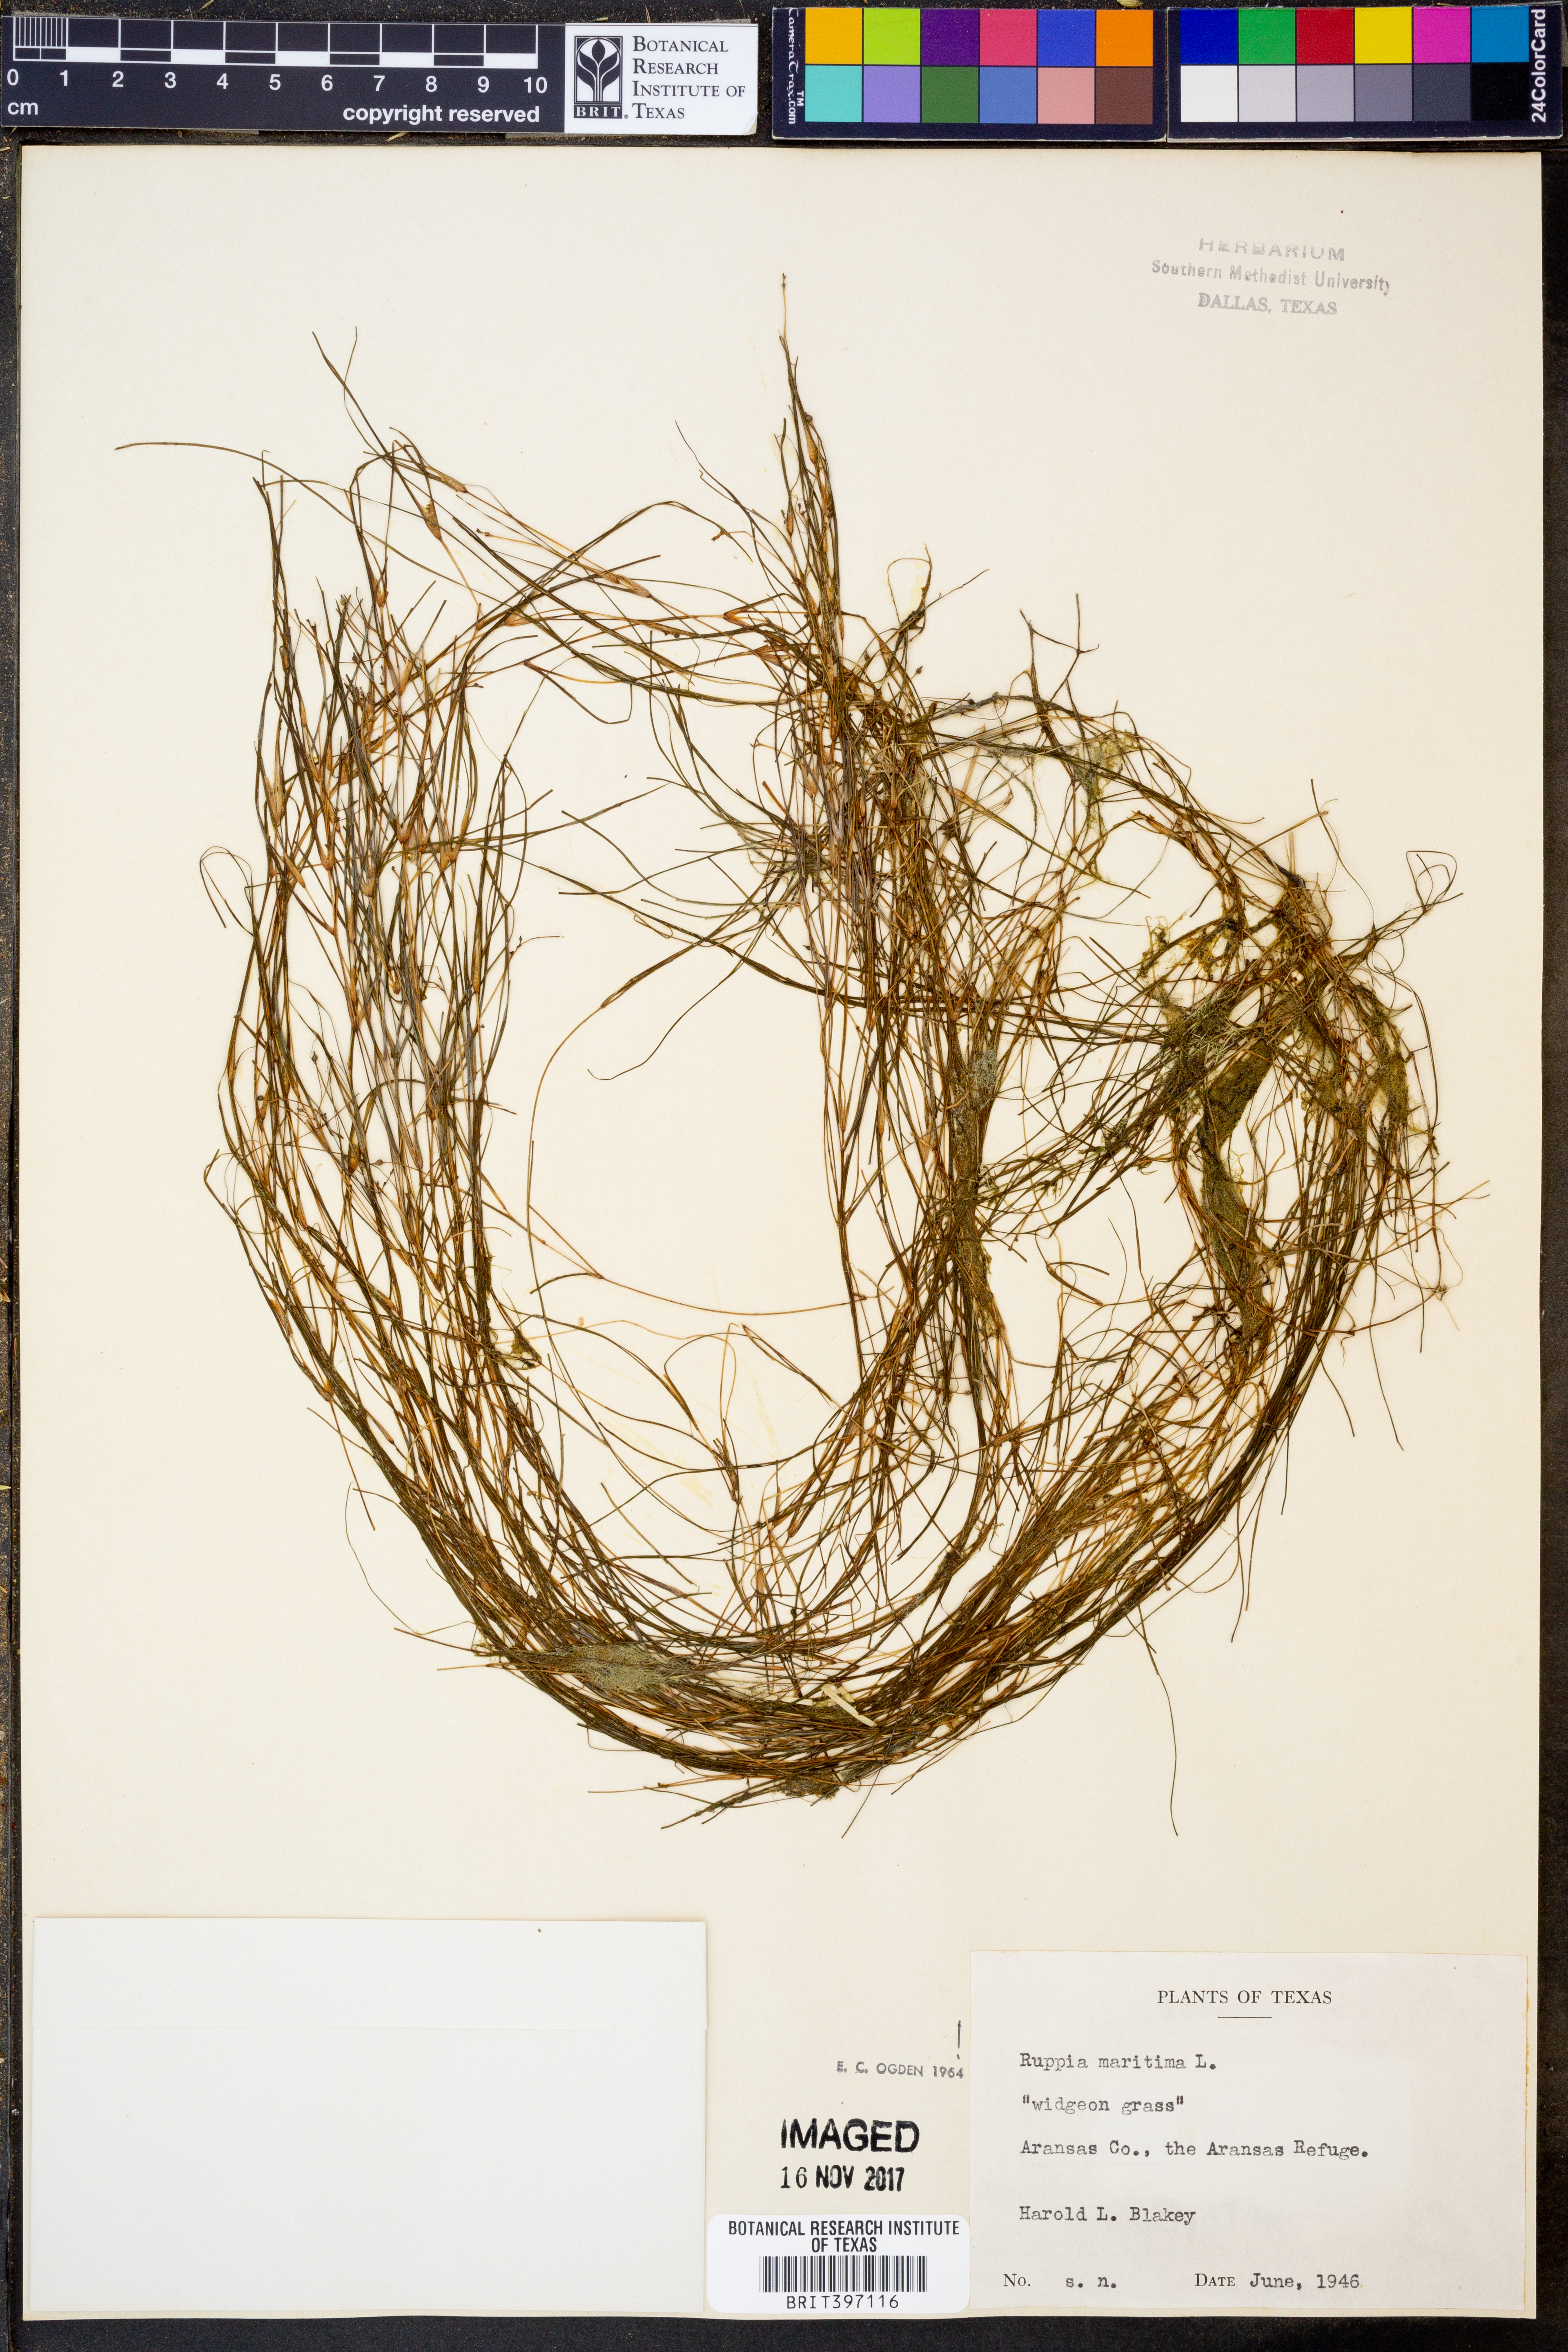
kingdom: Plantae
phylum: Tracheophyta
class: Liliopsida
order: Alismatales
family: Ruppiaceae
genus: Ruppia
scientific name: Ruppia maritima
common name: Beaked tasselweed
